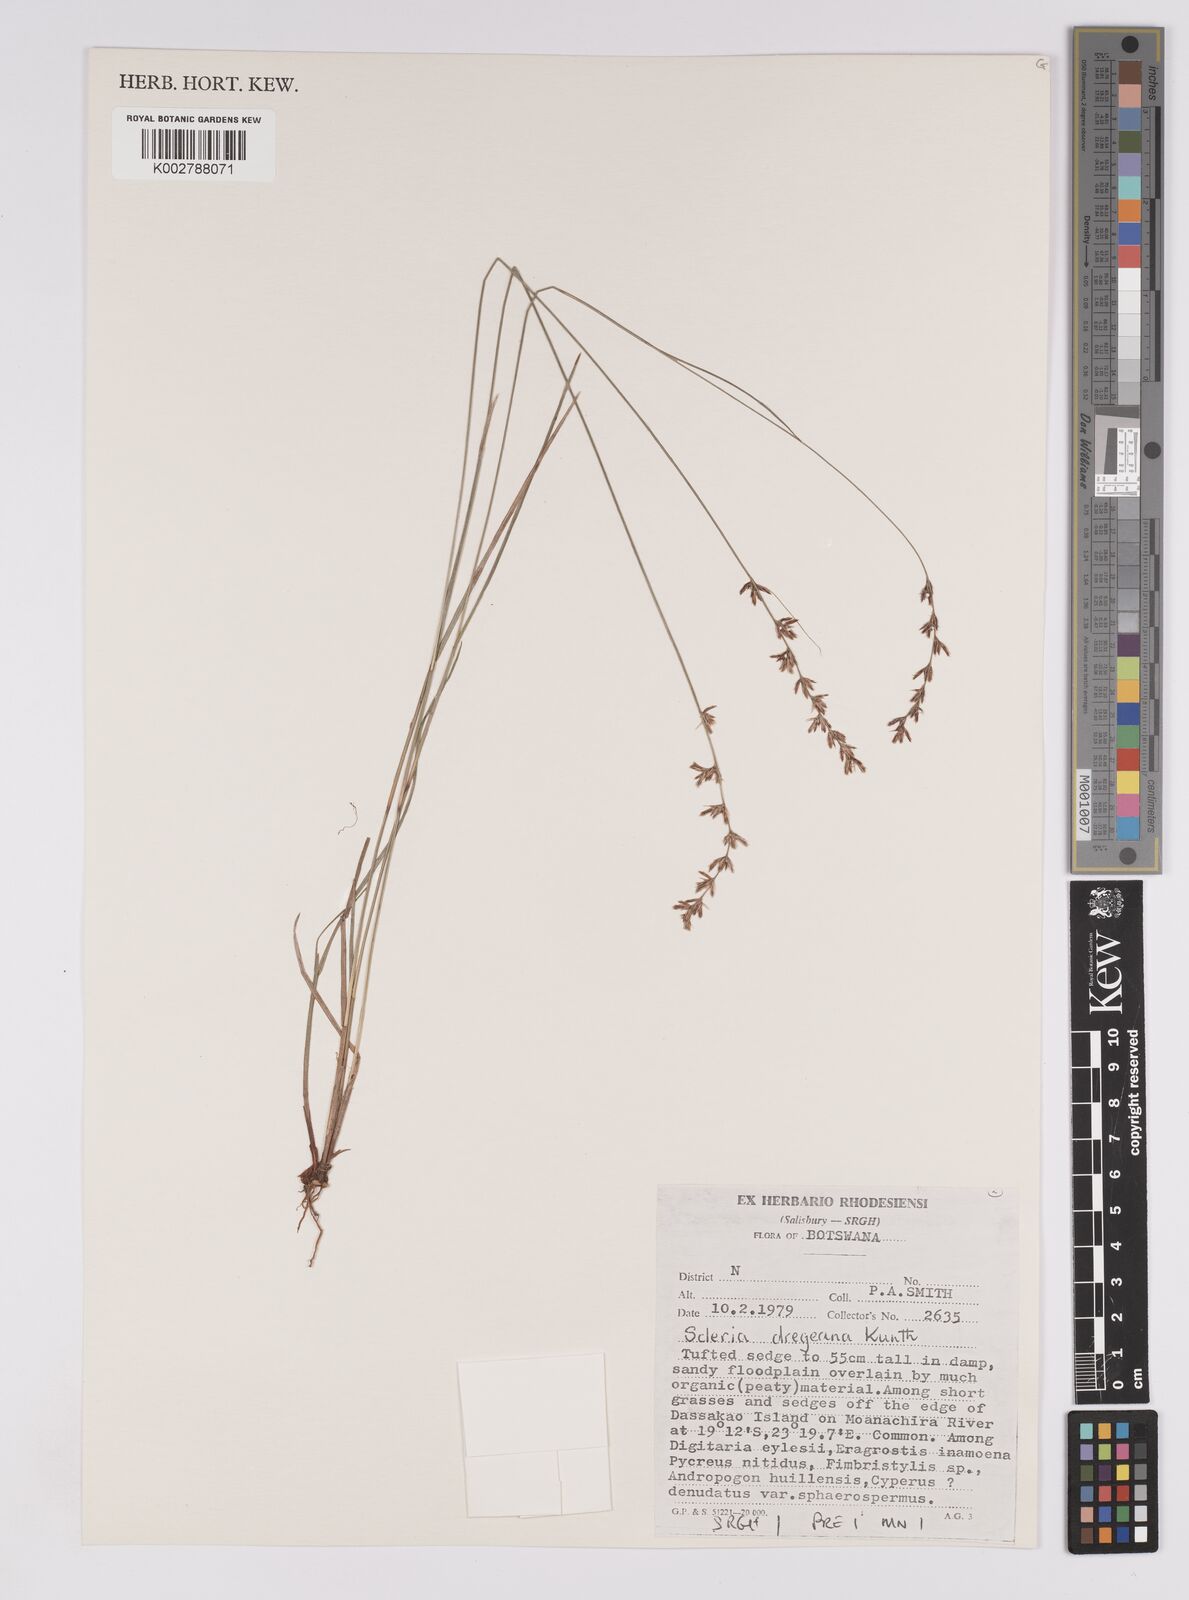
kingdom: Plantae
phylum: Tracheophyta
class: Liliopsida
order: Poales
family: Cyperaceae
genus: Scleria
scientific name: Scleria dregeana
